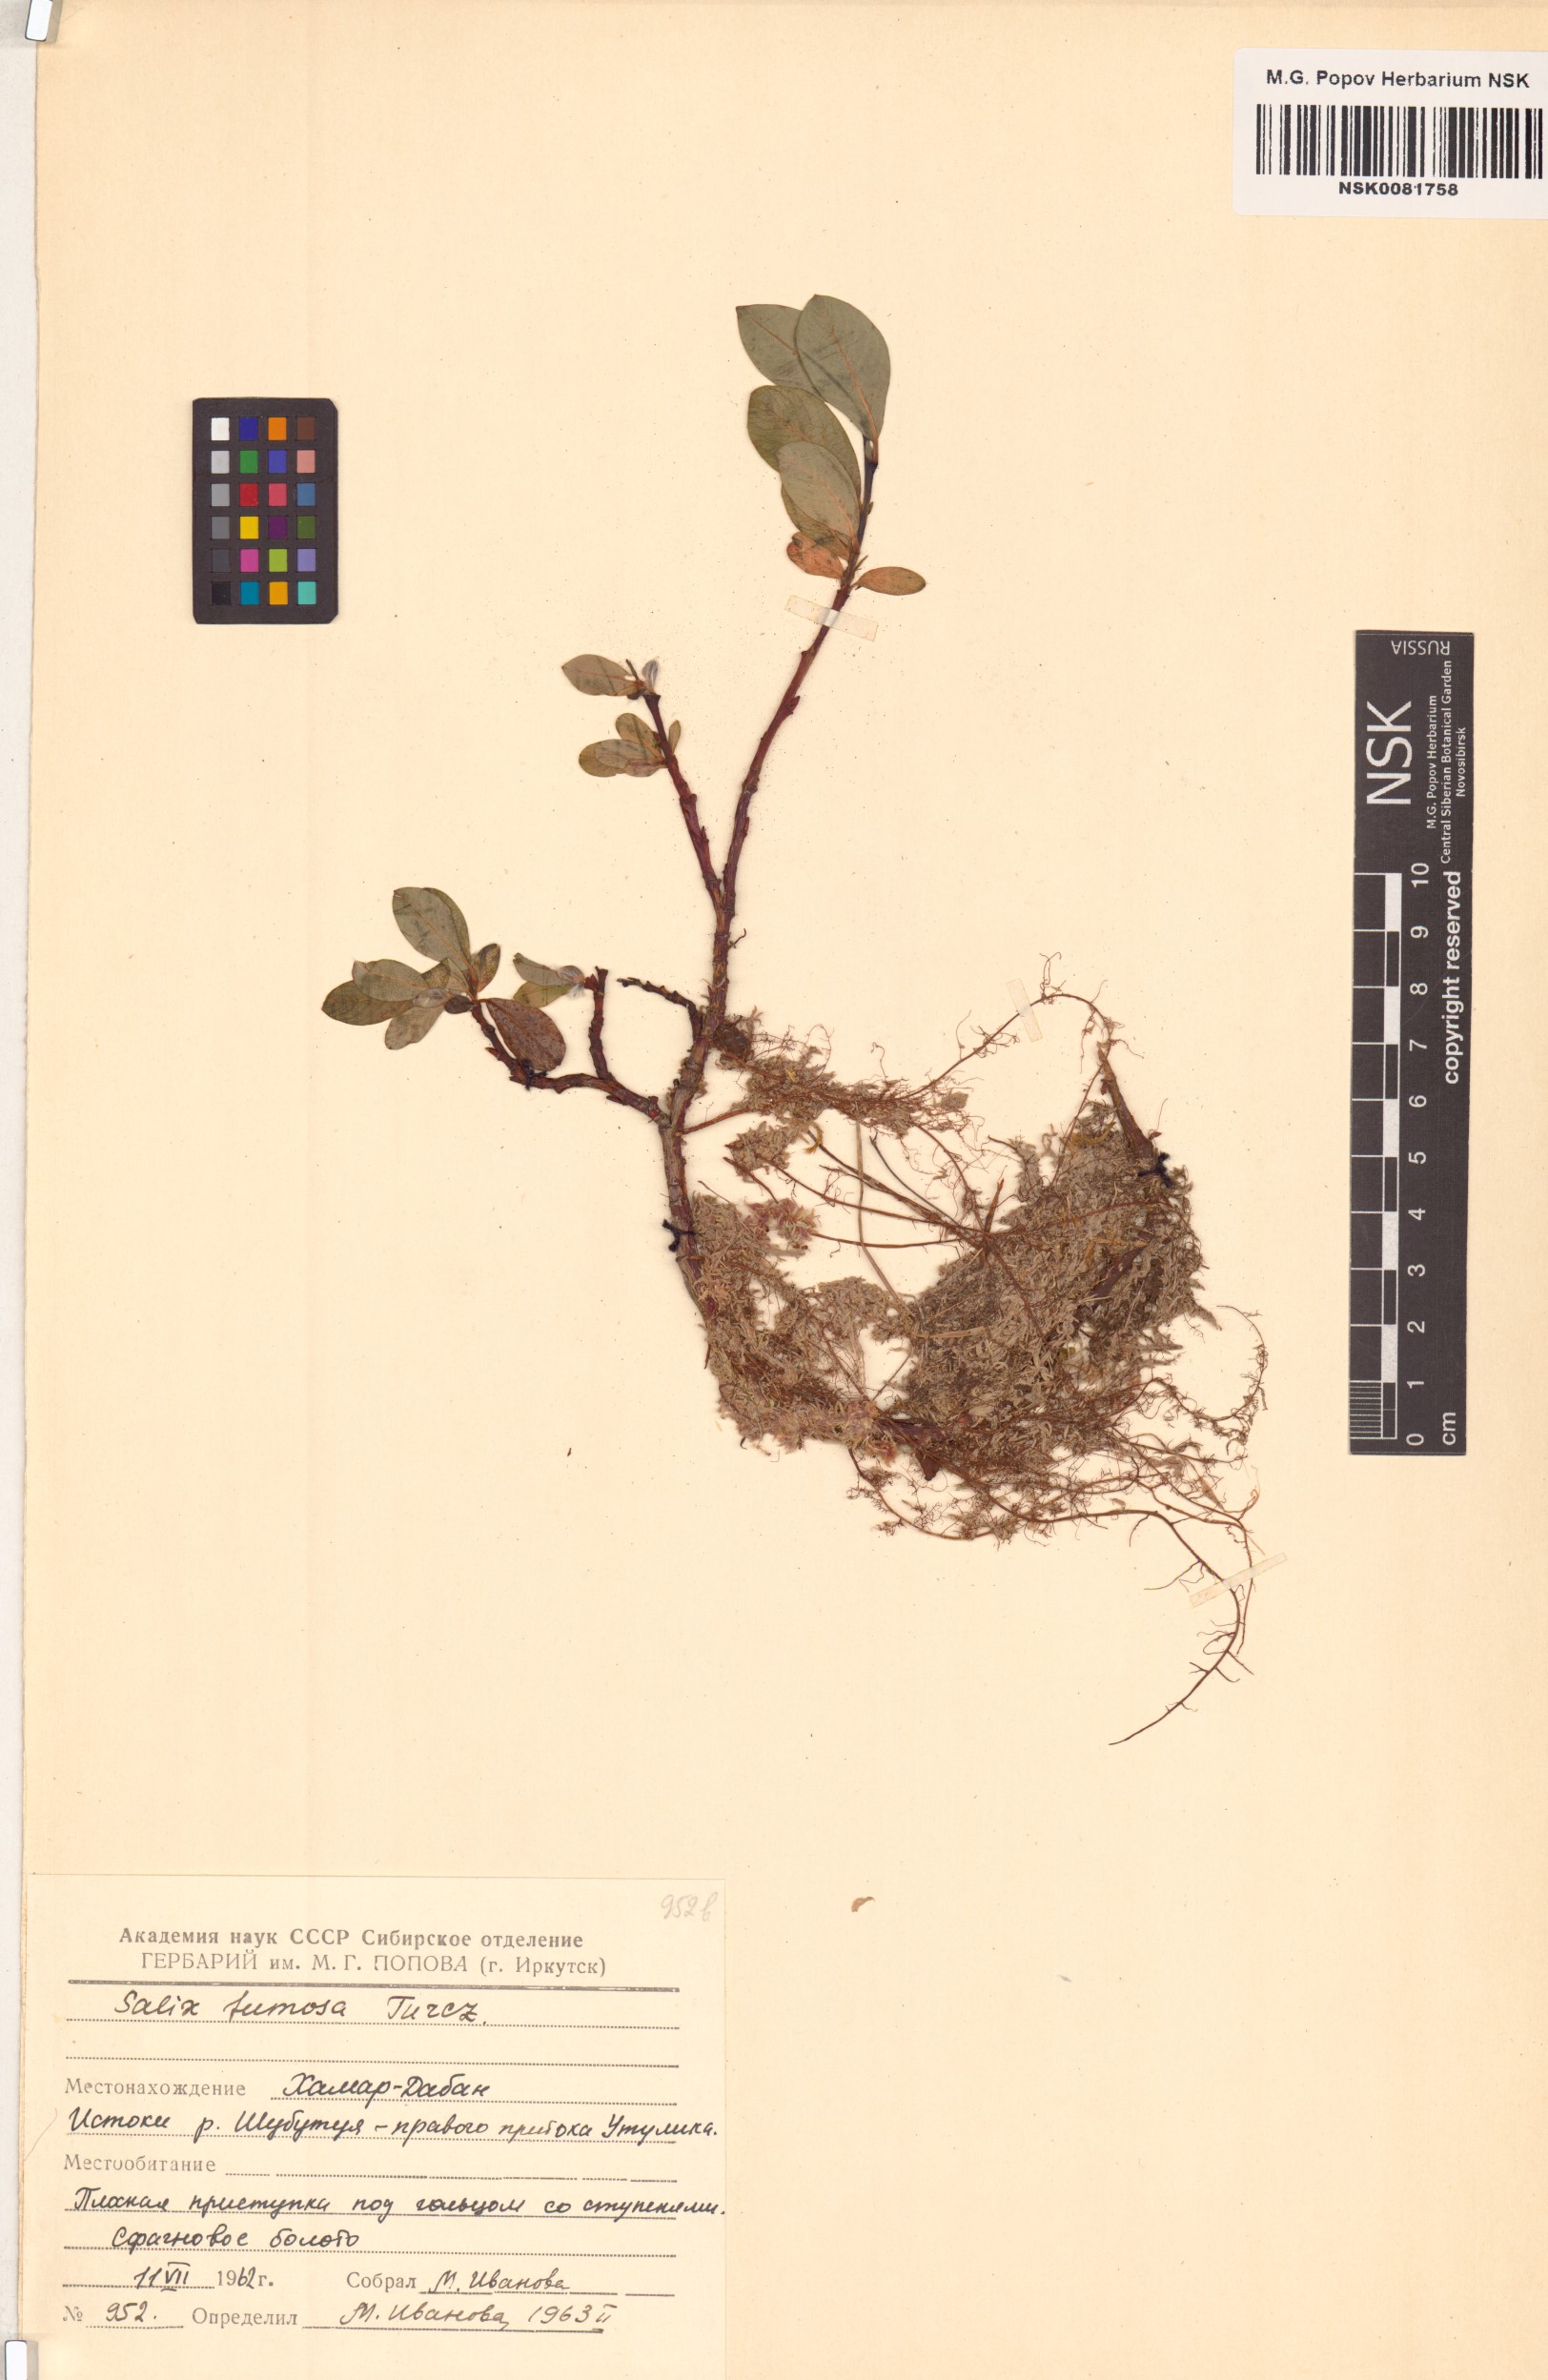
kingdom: Plantae
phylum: Tracheophyta
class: Magnoliopsida
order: Malpighiales
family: Salicaceae
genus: Salix
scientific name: Salix saxatilis
